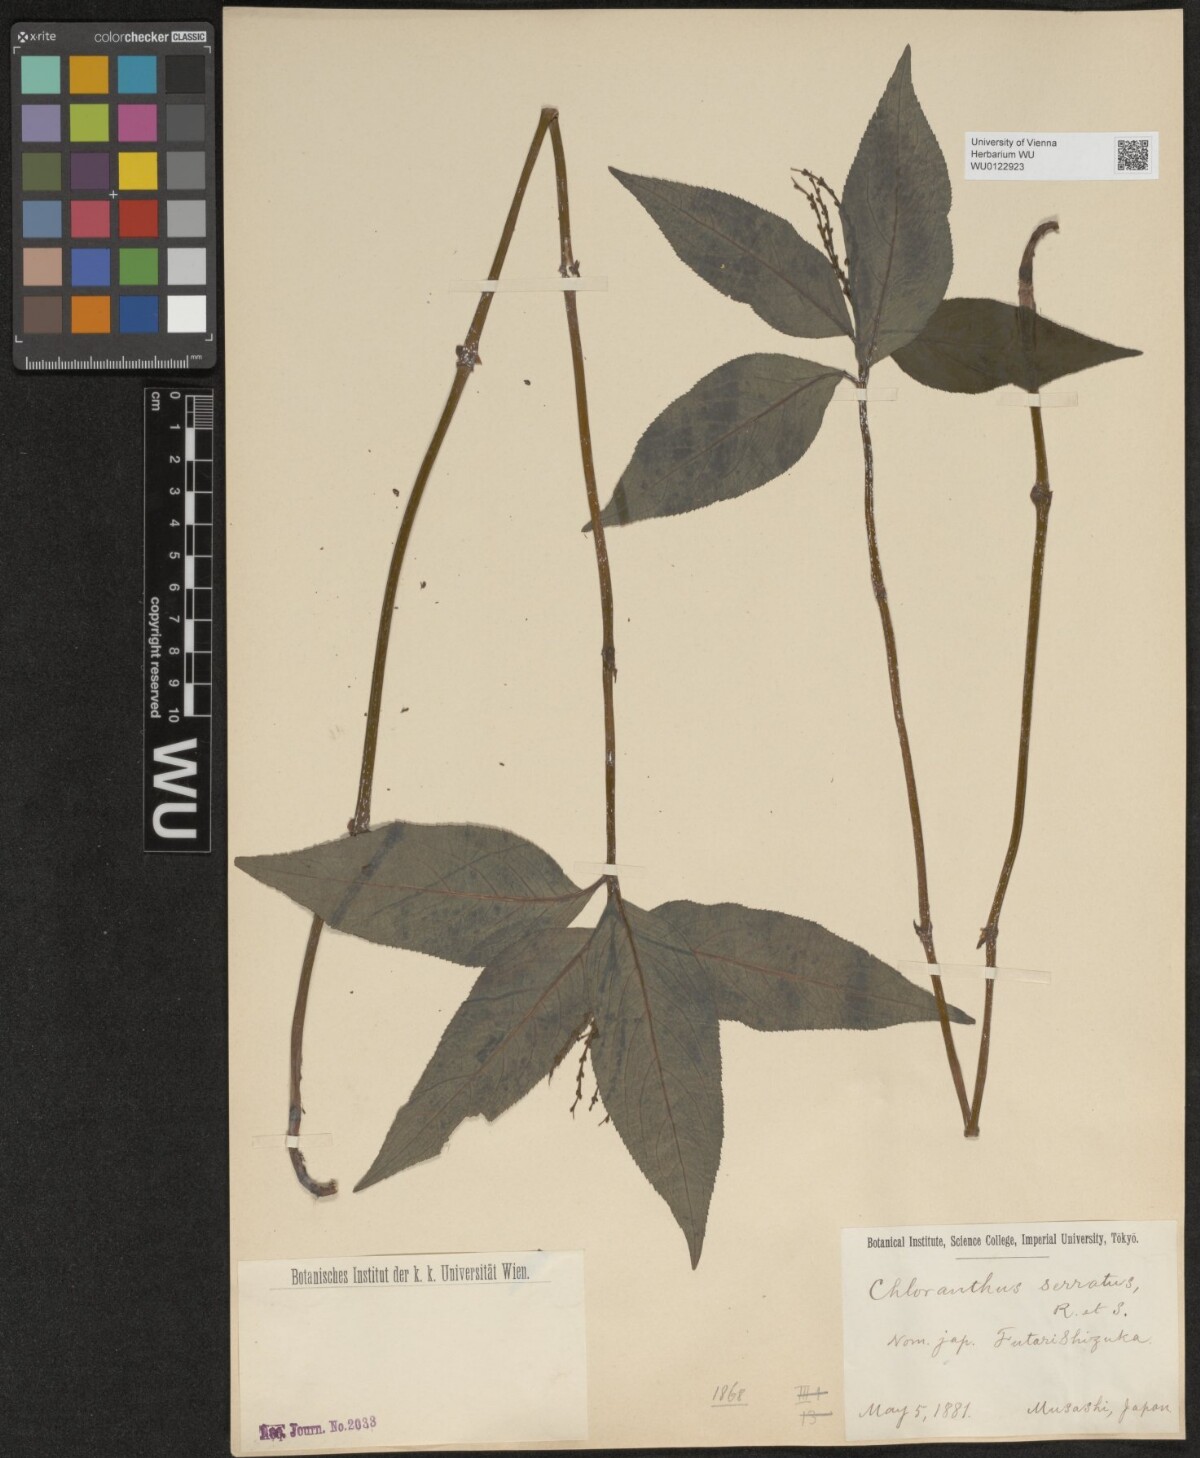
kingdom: Plantae
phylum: Tracheophyta
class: Magnoliopsida
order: Chloranthales
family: Chloranthaceae
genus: Chloranthus
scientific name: Chloranthus serratus
